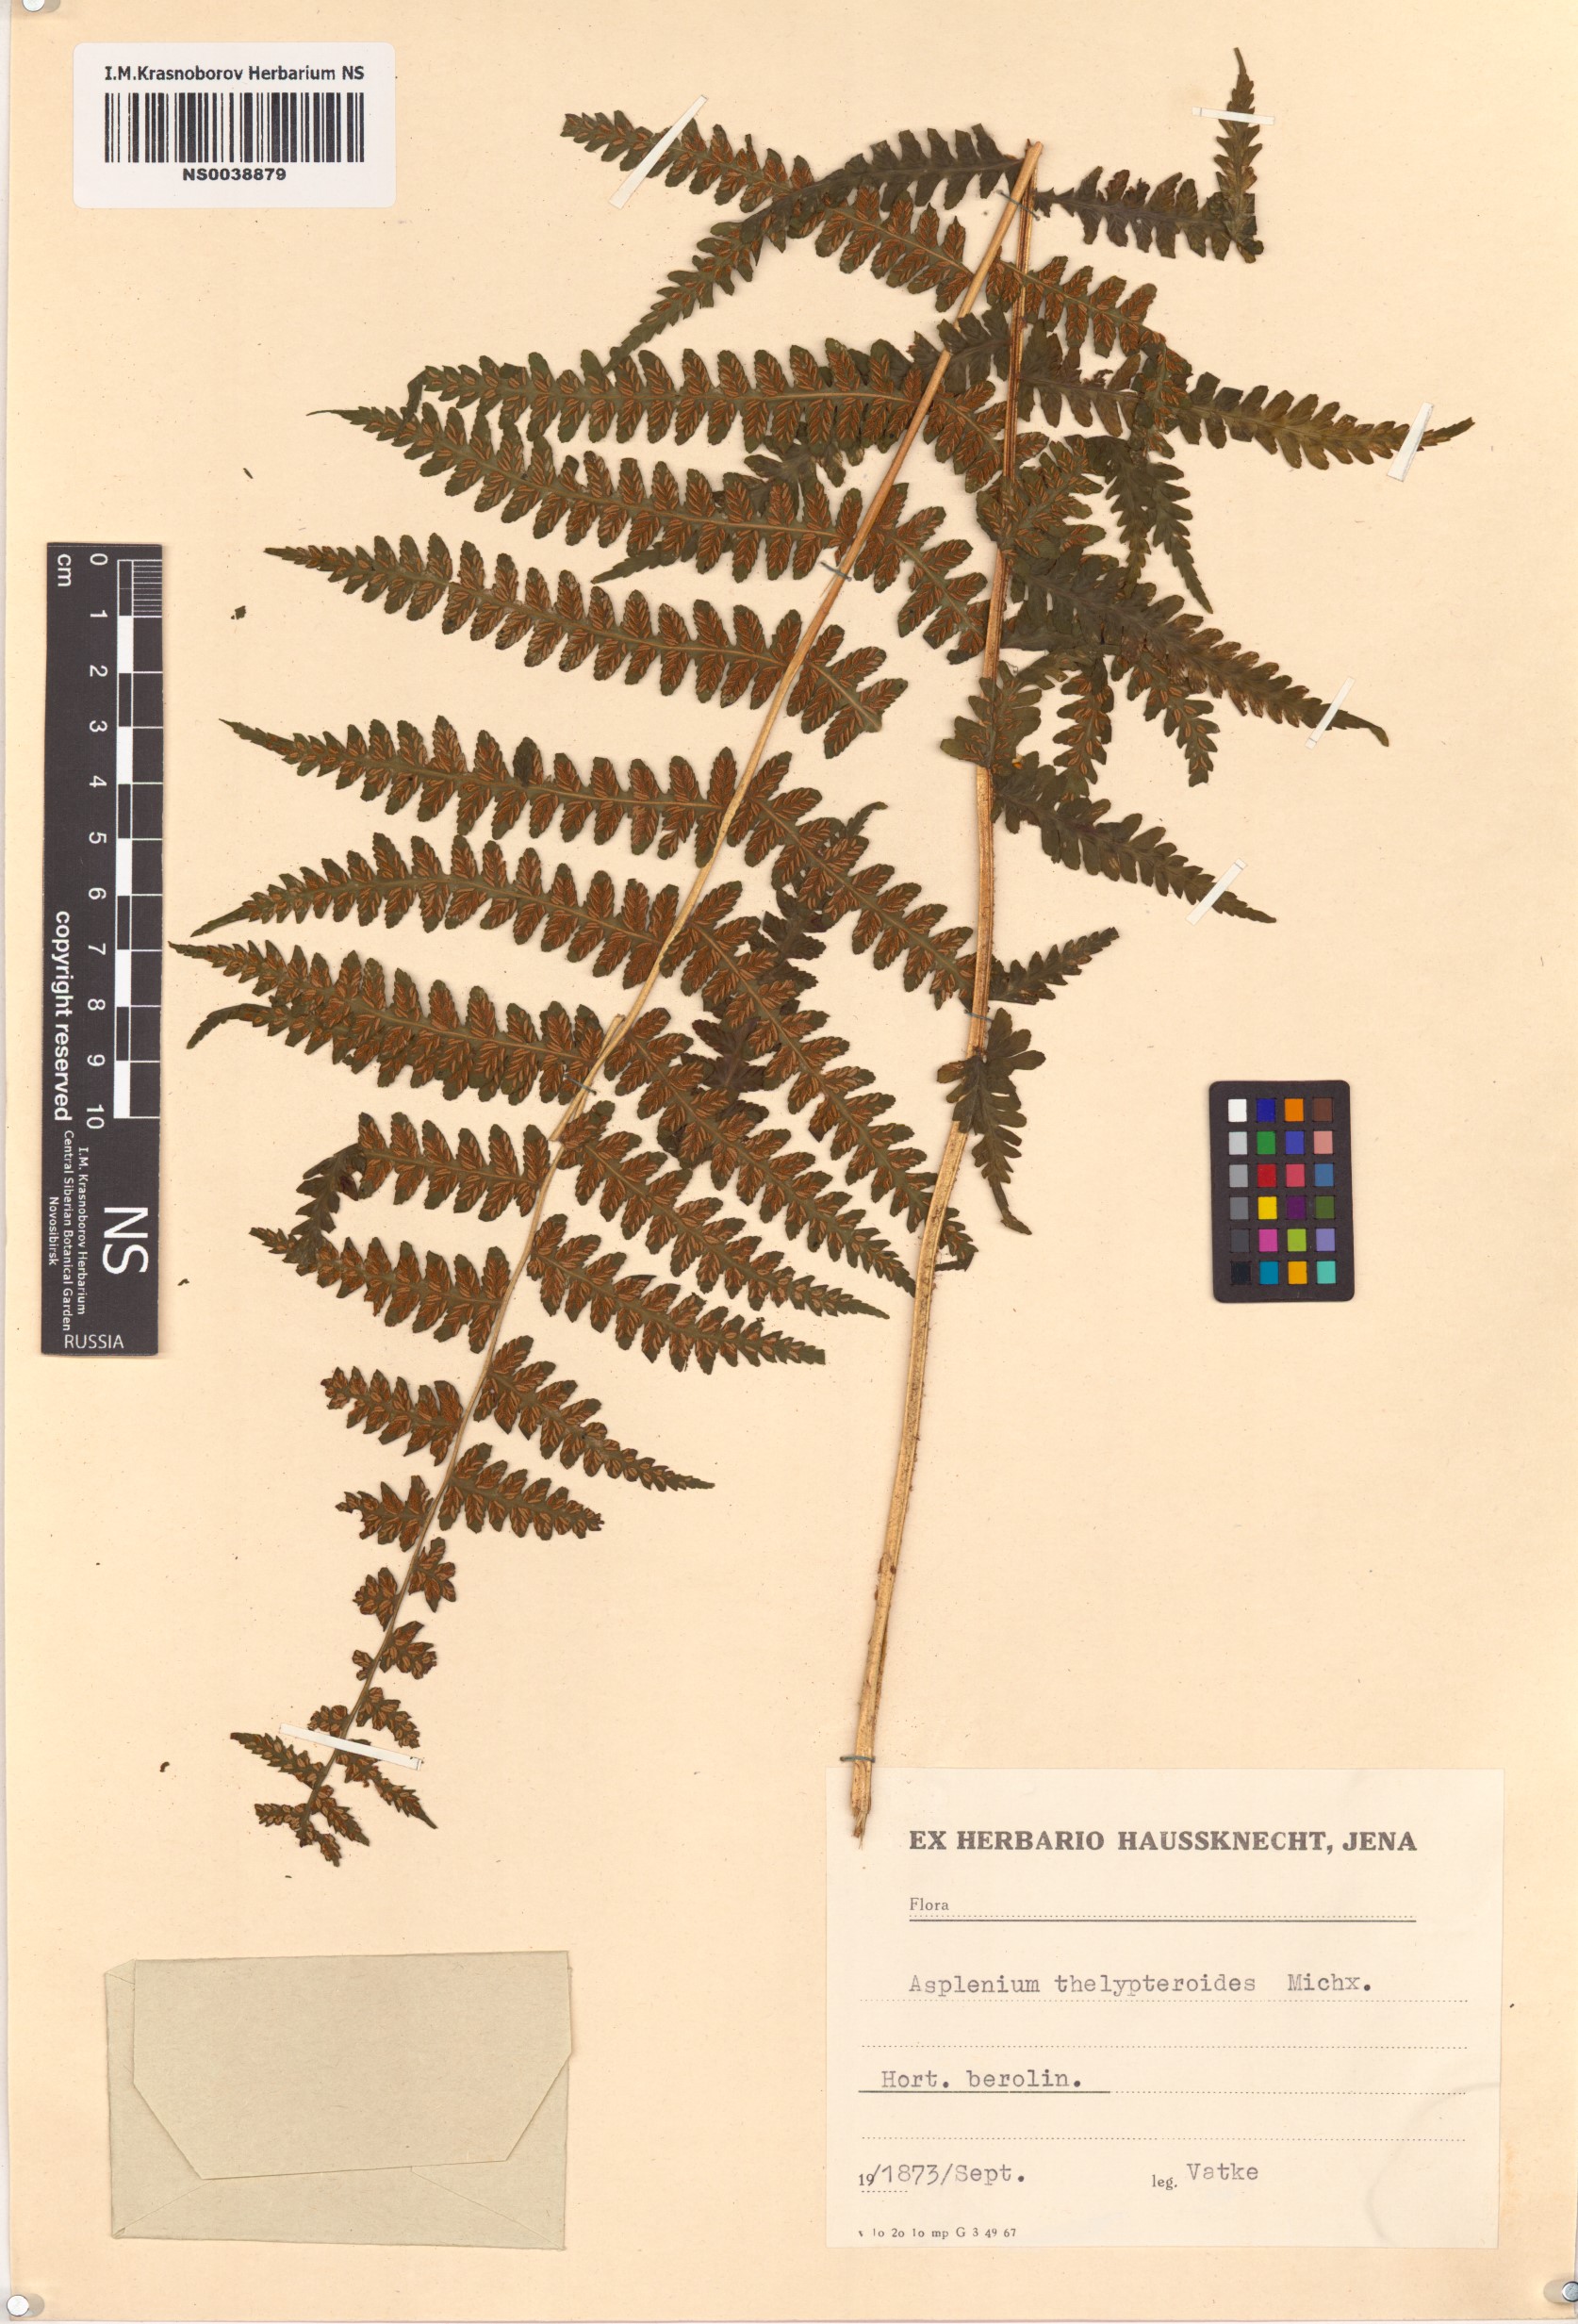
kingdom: Plantae
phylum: Tracheophyta
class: Polypodiopsida
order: Polypodiales
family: Thelypteridaceae
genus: Amauropelta
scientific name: Amauropelta noveboracensis
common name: New york fern
